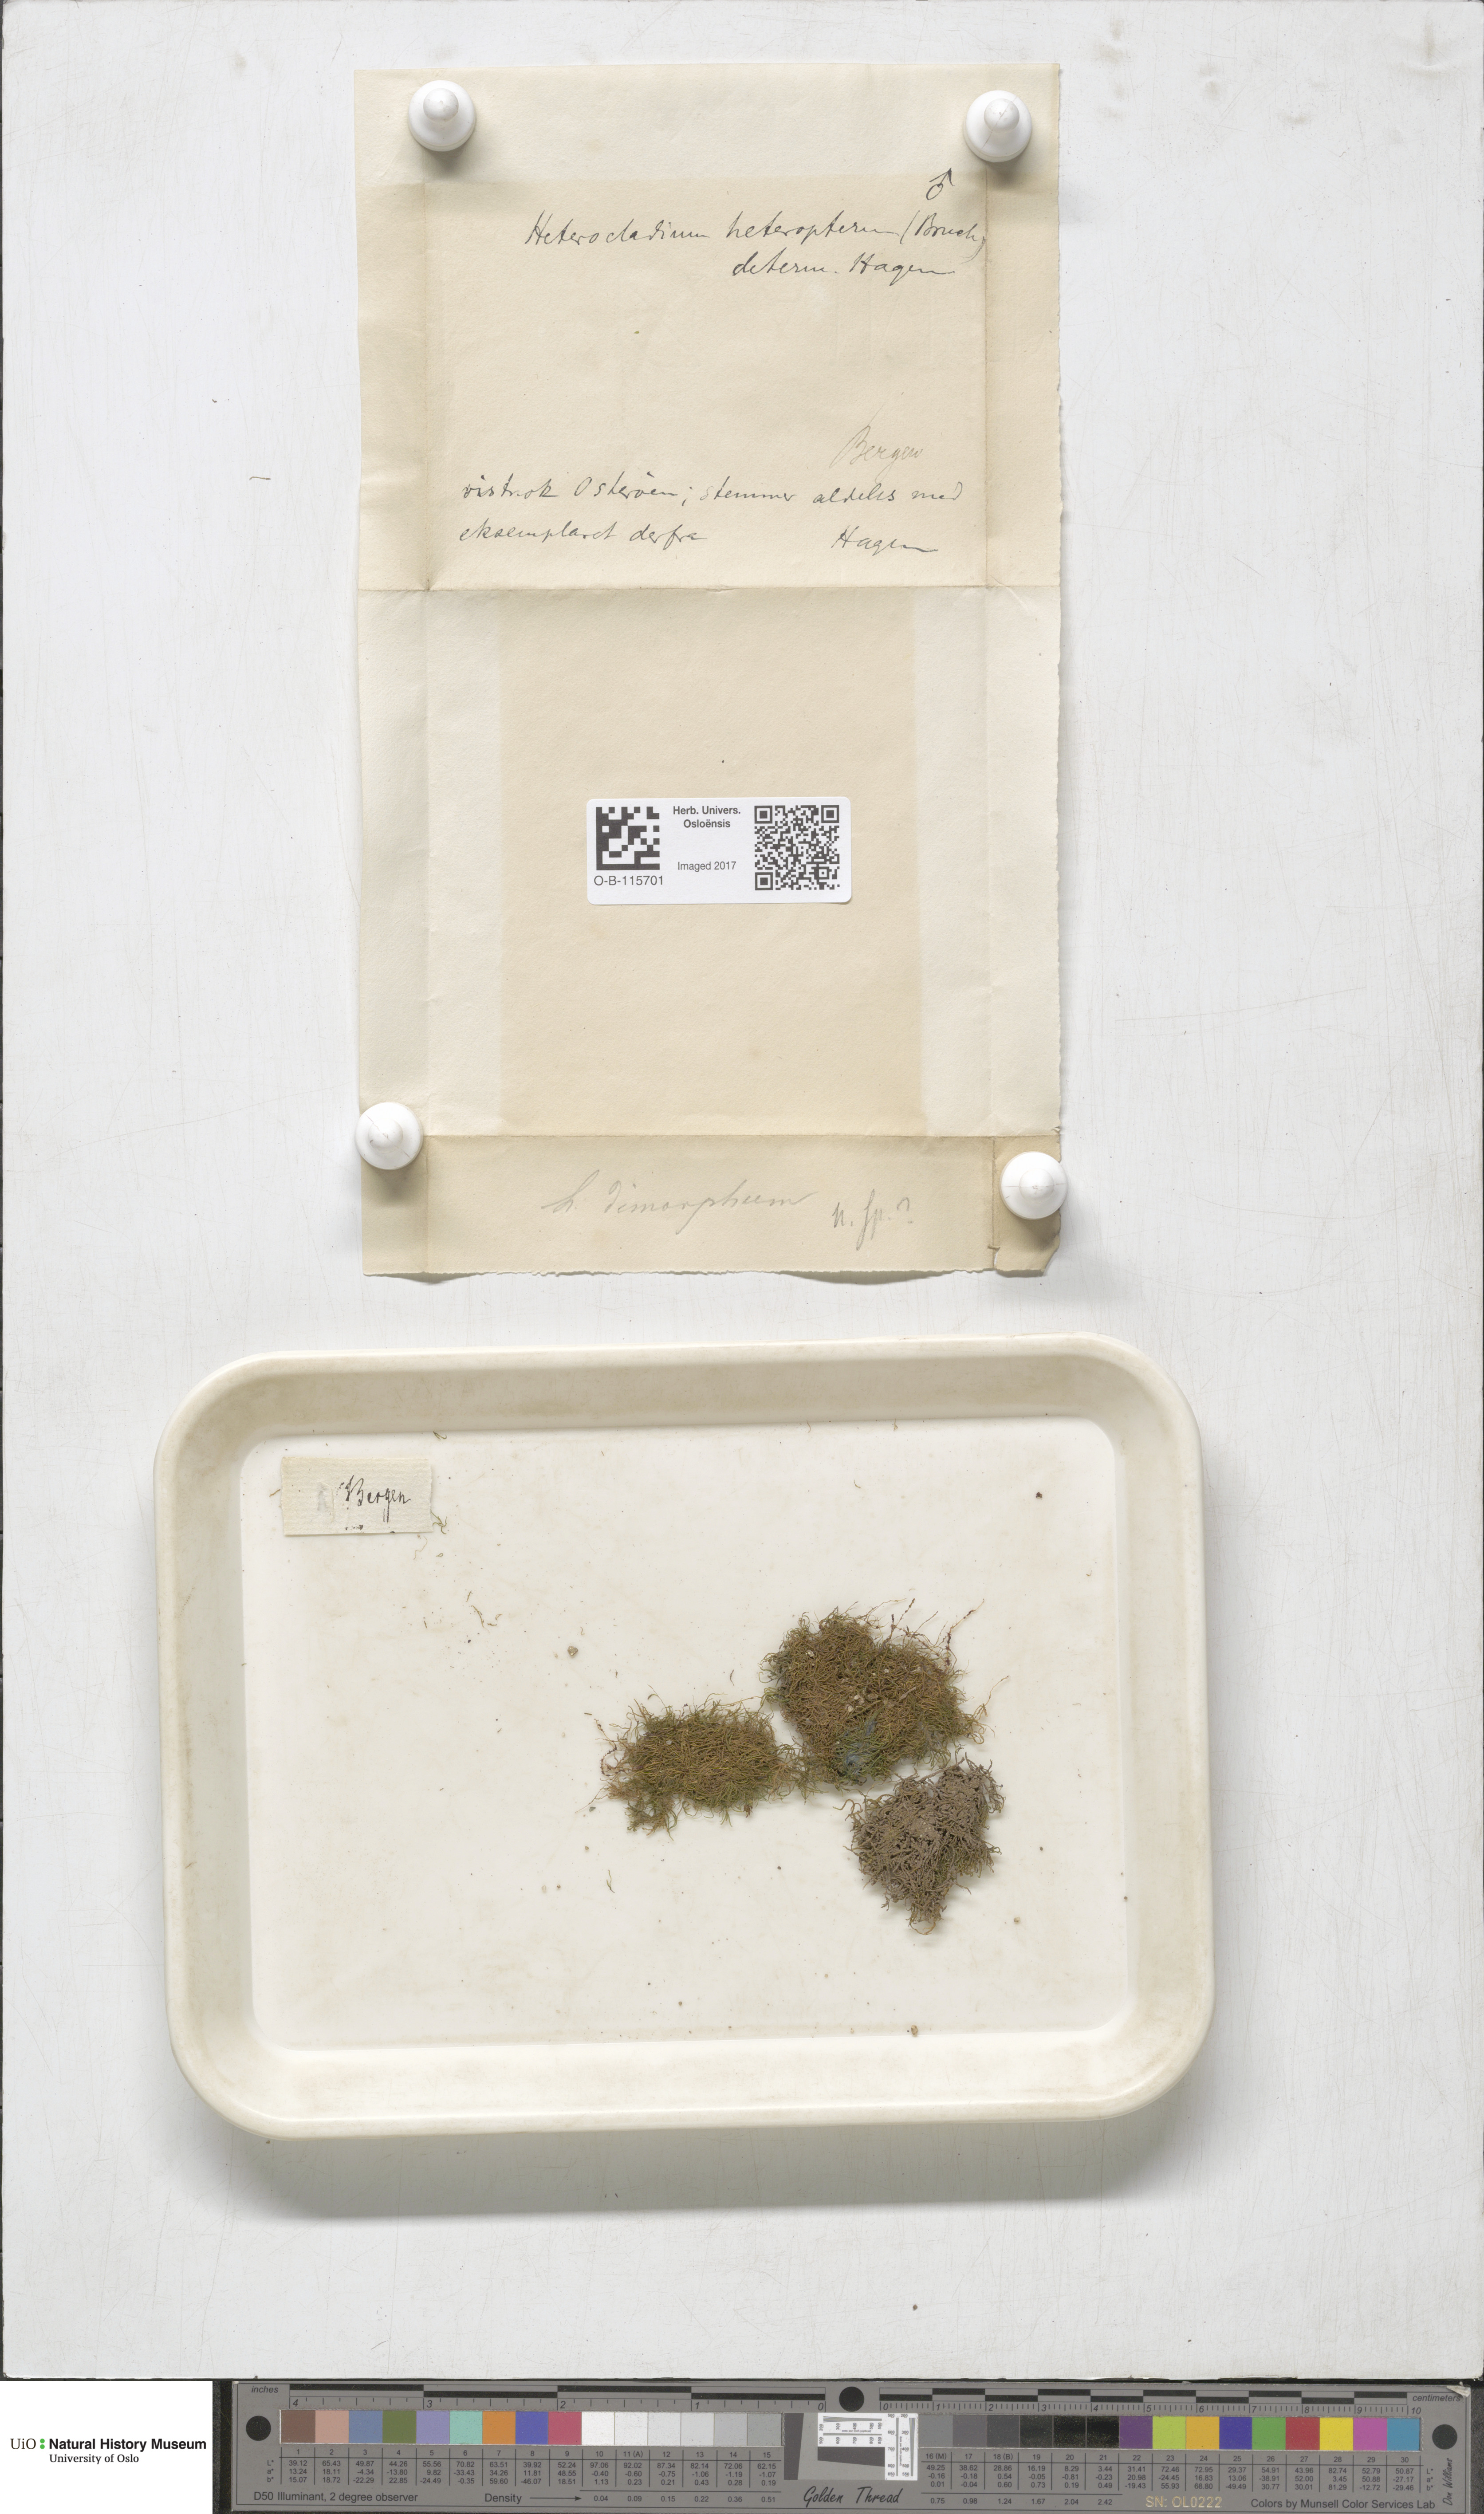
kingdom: Plantae
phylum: Bryophyta
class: Bryopsida
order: Hypnales
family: Lembophyllaceae
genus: Heterocladium
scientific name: Heterocladium heteropterum
